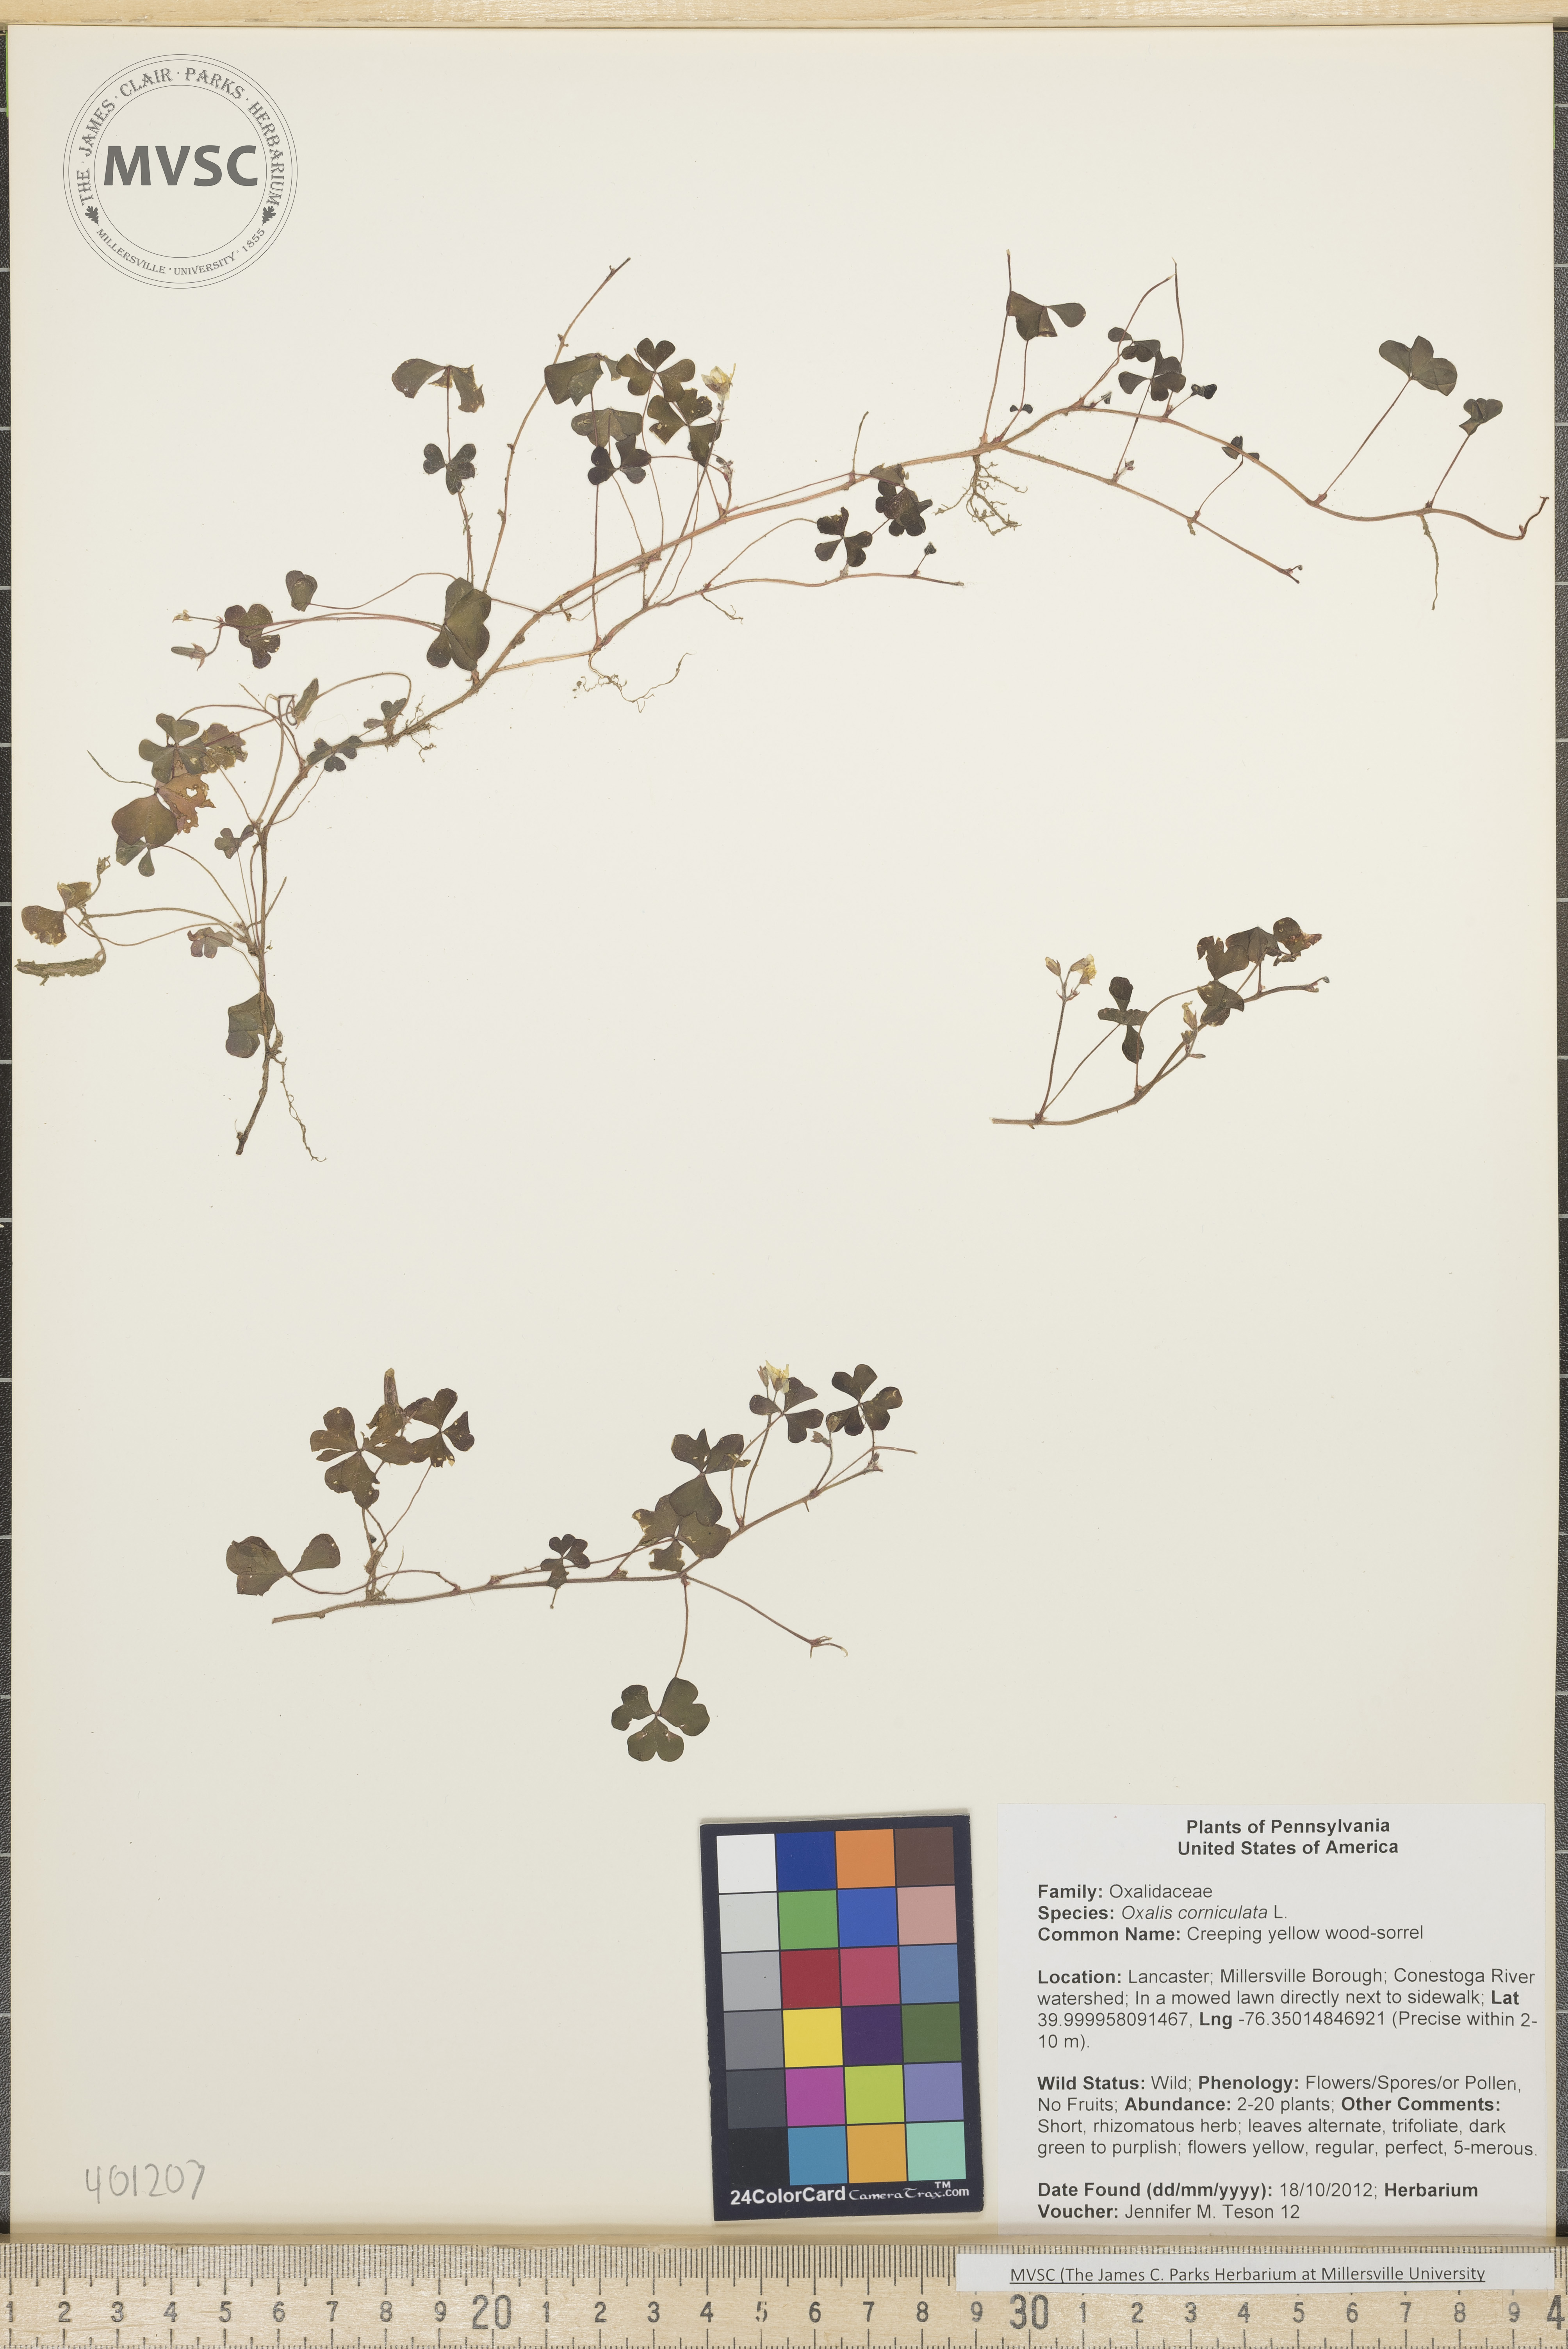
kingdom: Plantae
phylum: Tracheophyta
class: Magnoliopsida
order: Oxalidales
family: Oxalidaceae
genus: Oxalis
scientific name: Oxalis corniculata
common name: Creeping yellow wood-sorrel
